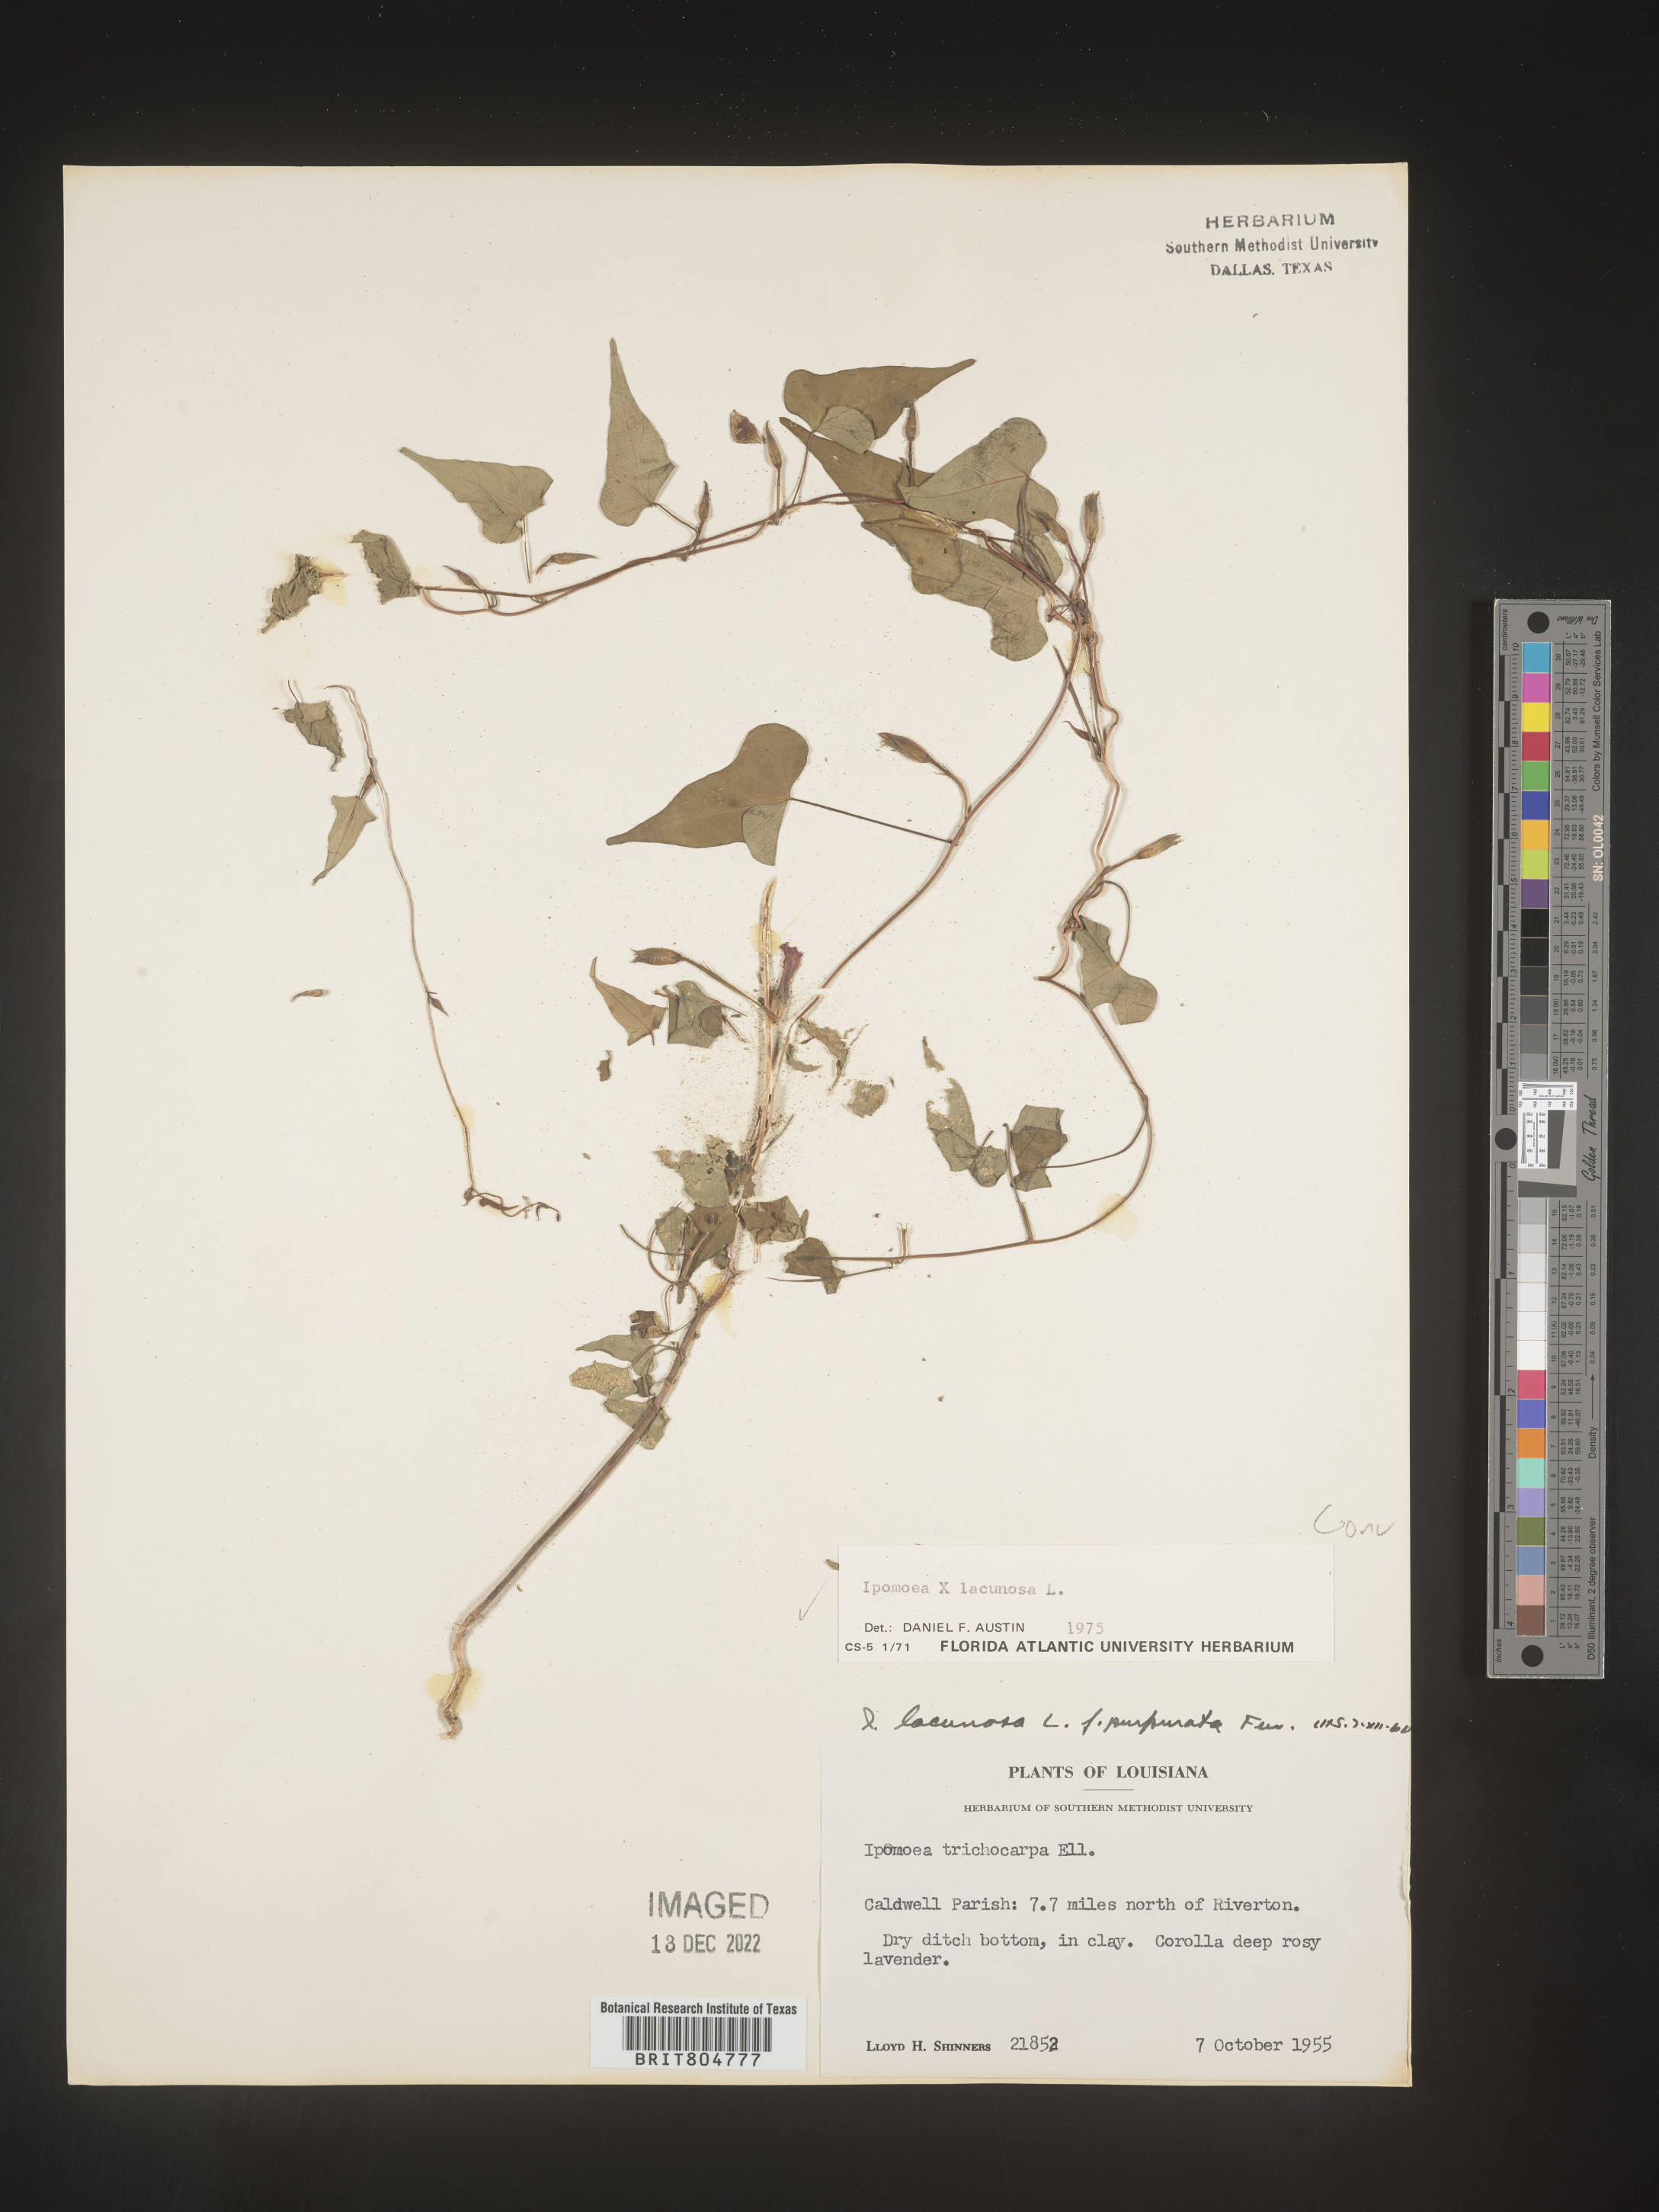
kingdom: Plantae
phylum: Tracheophyta
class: Magnoliopsida
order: Solanales
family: Convolvulaceae
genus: Ipomoea
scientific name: Ipomoea lacunosa
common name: White morning-glory
